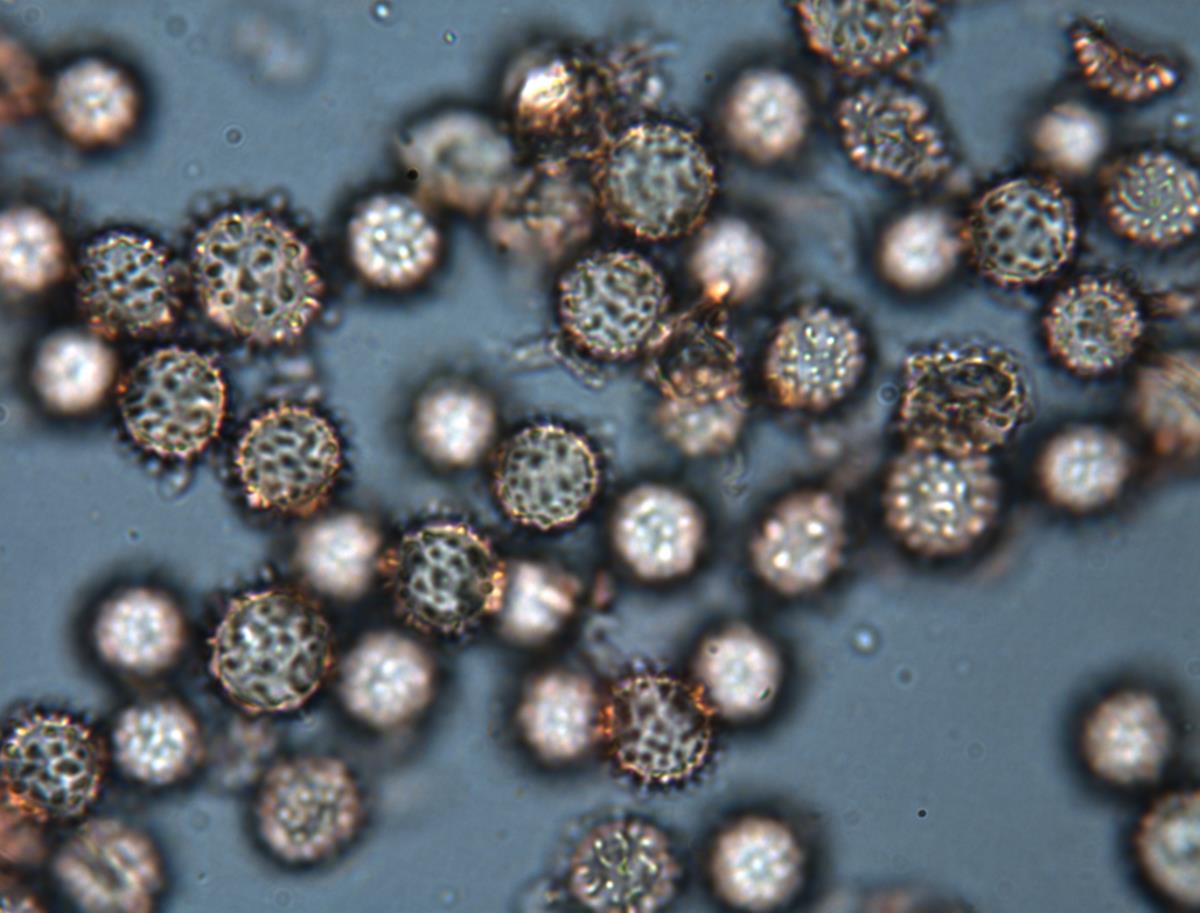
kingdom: Fungi
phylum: Basidiomycota
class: Agaricomycetes
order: Russulales
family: Russulaceae
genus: Russula
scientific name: Russula xanthospora
